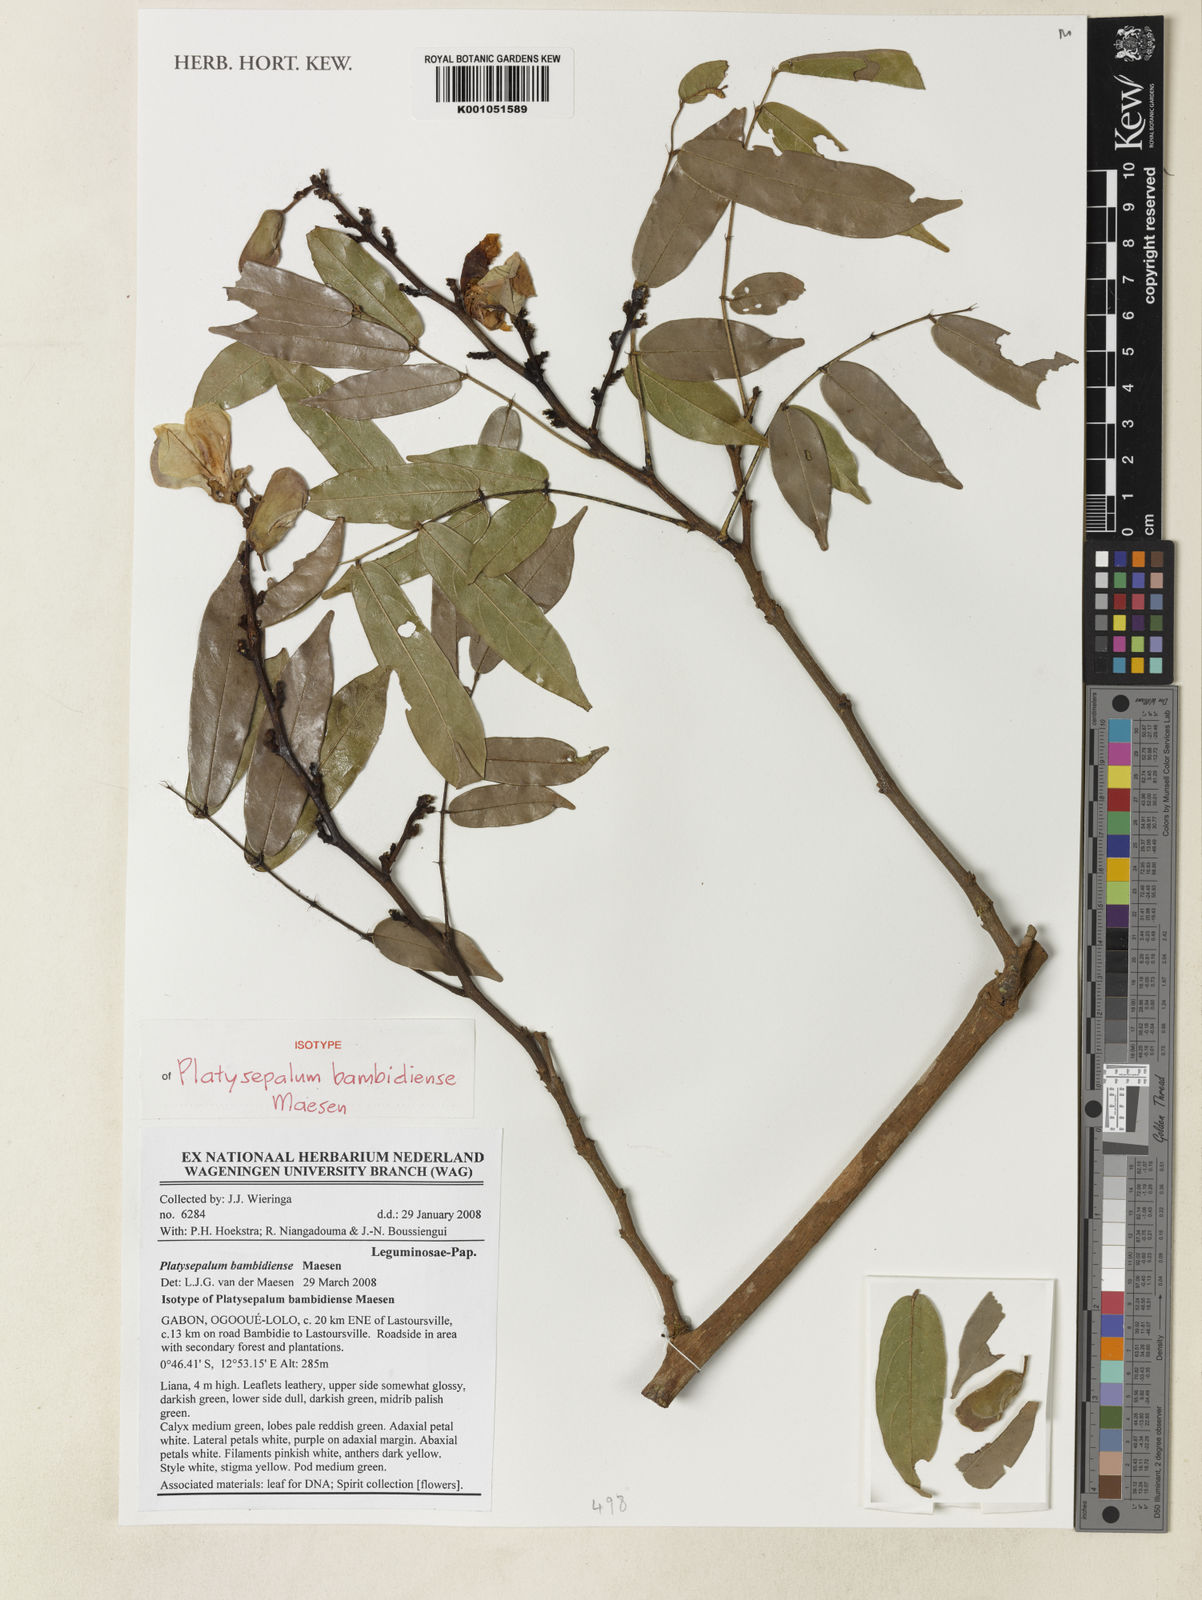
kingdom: Plantae
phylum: Tracheophyta
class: Magnoliopsida
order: Fabales
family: Fabaceae
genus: Platysepalum
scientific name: Platysepalum bambidiense
